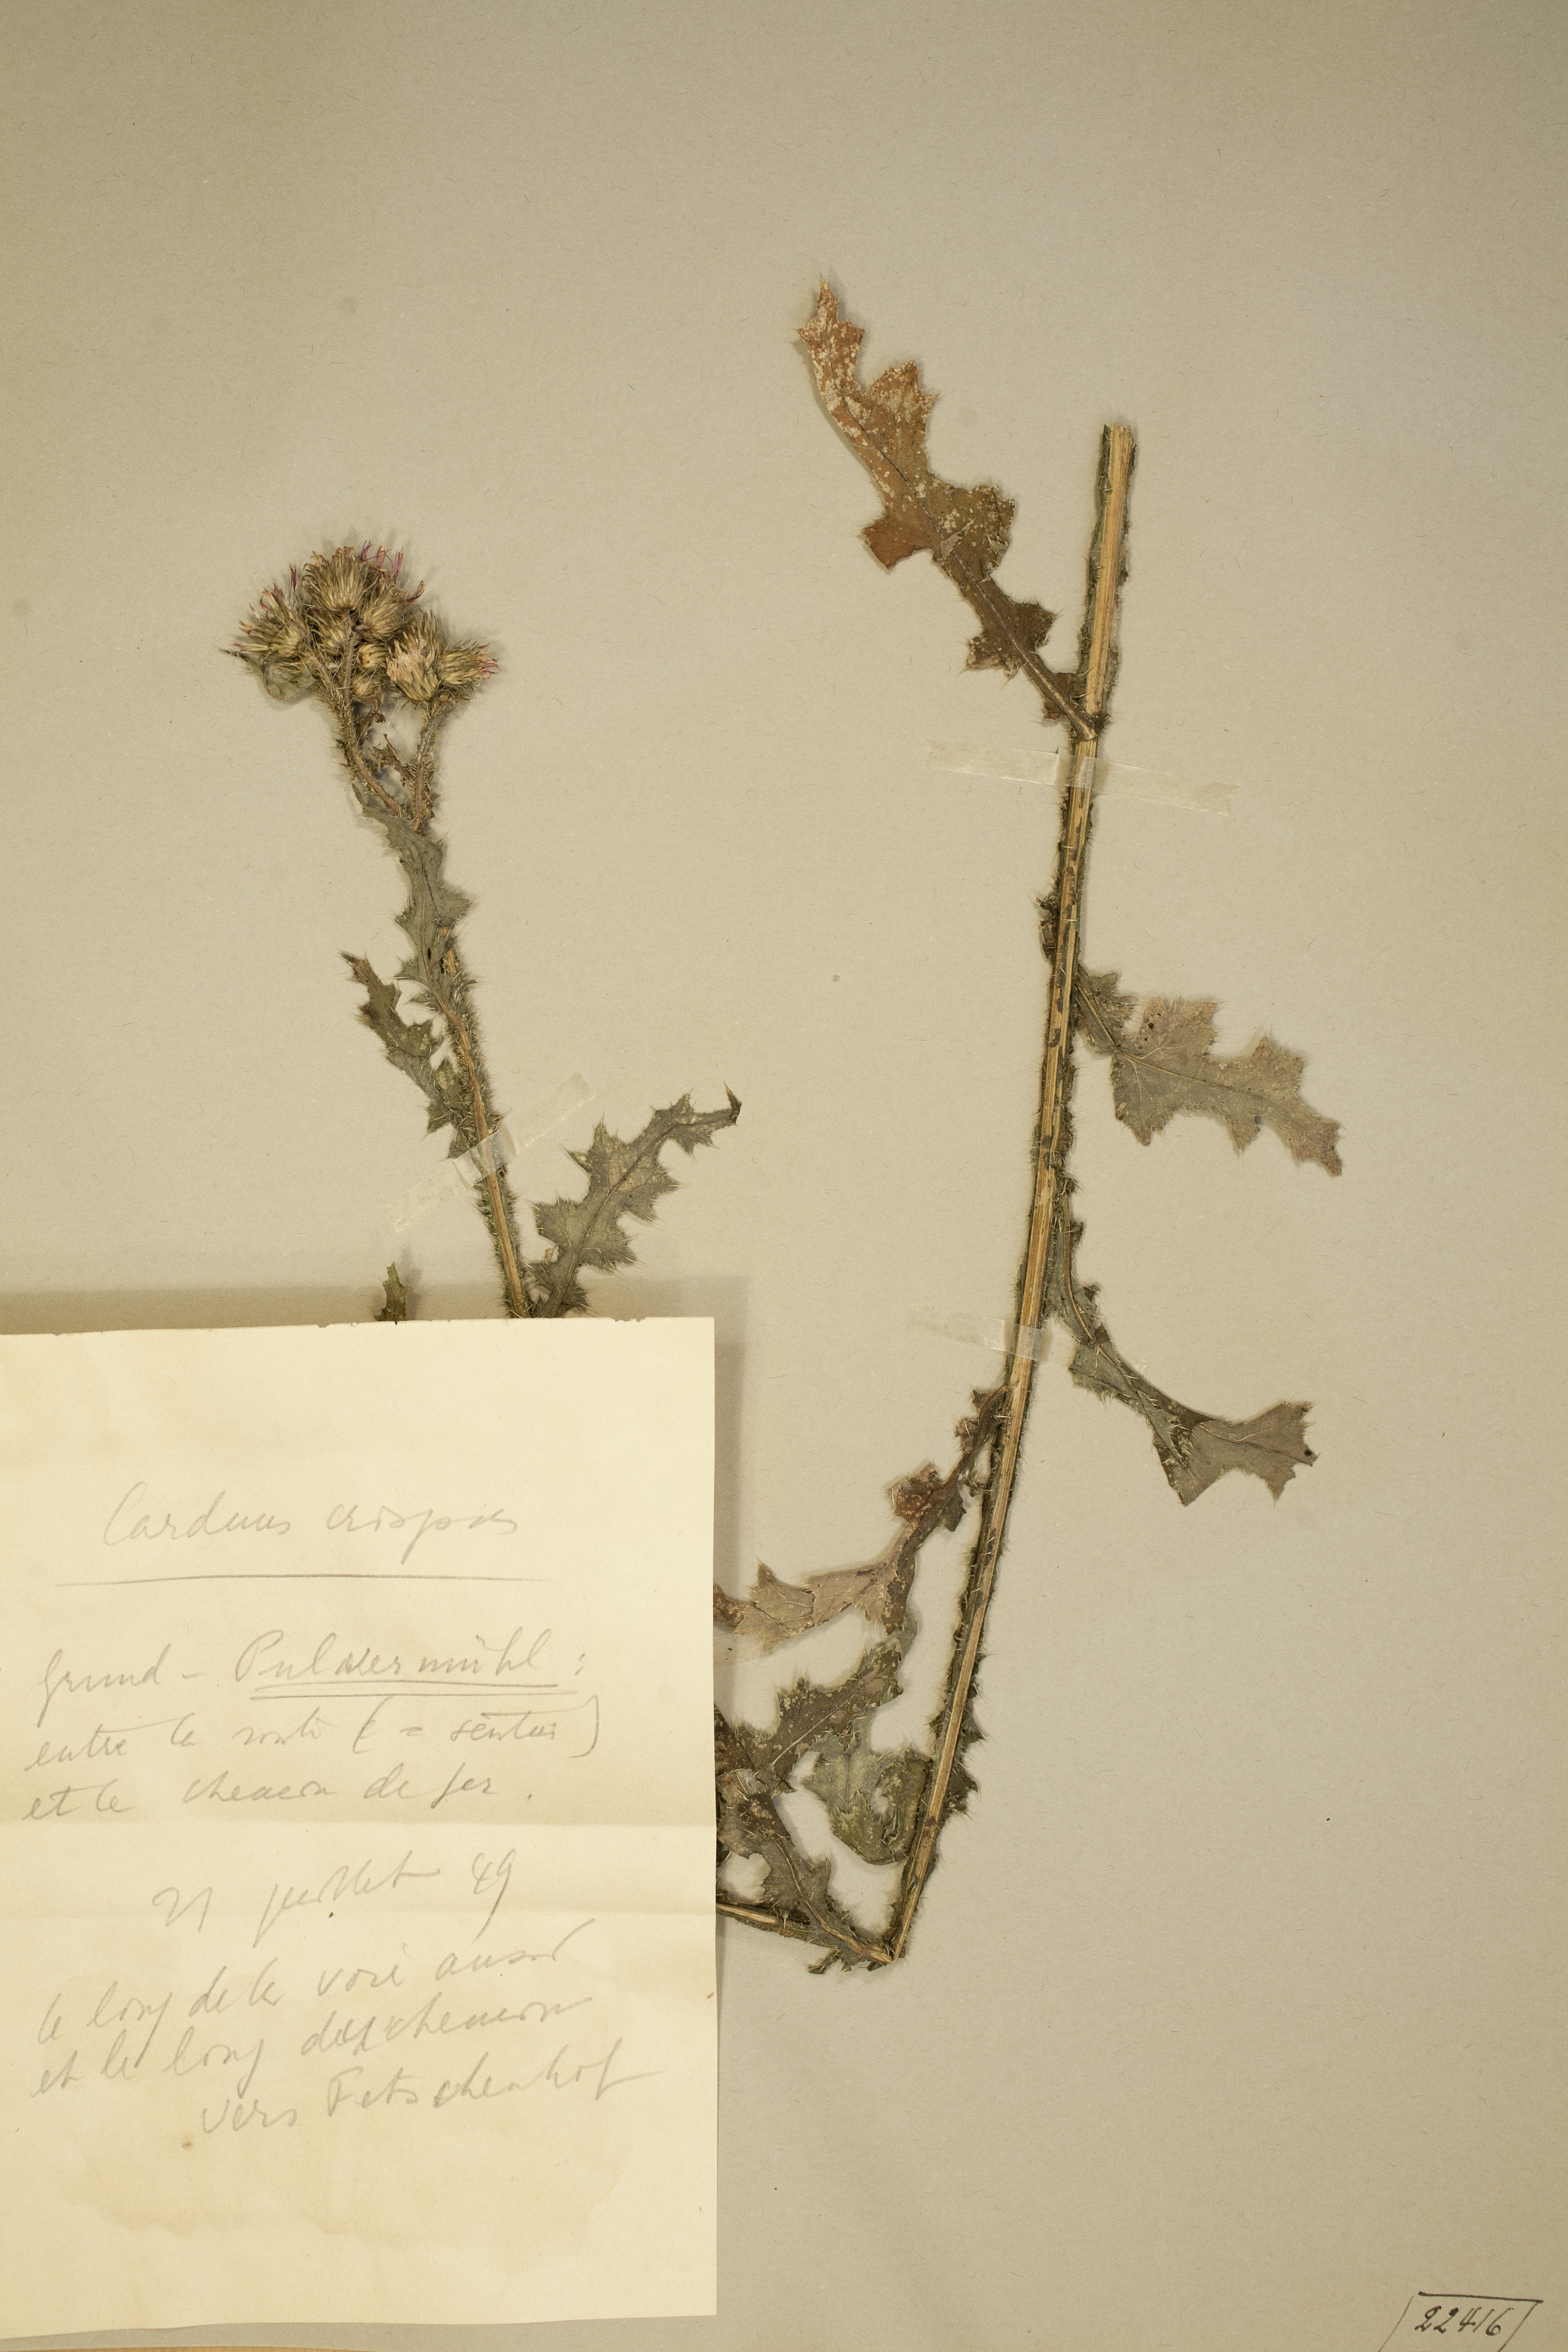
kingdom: Plantae
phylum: Tracheophyta
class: Magnoliopsida
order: Asterales
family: Asteraceae
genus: Carduus
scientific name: Carduus crispus
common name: Welted thistle
